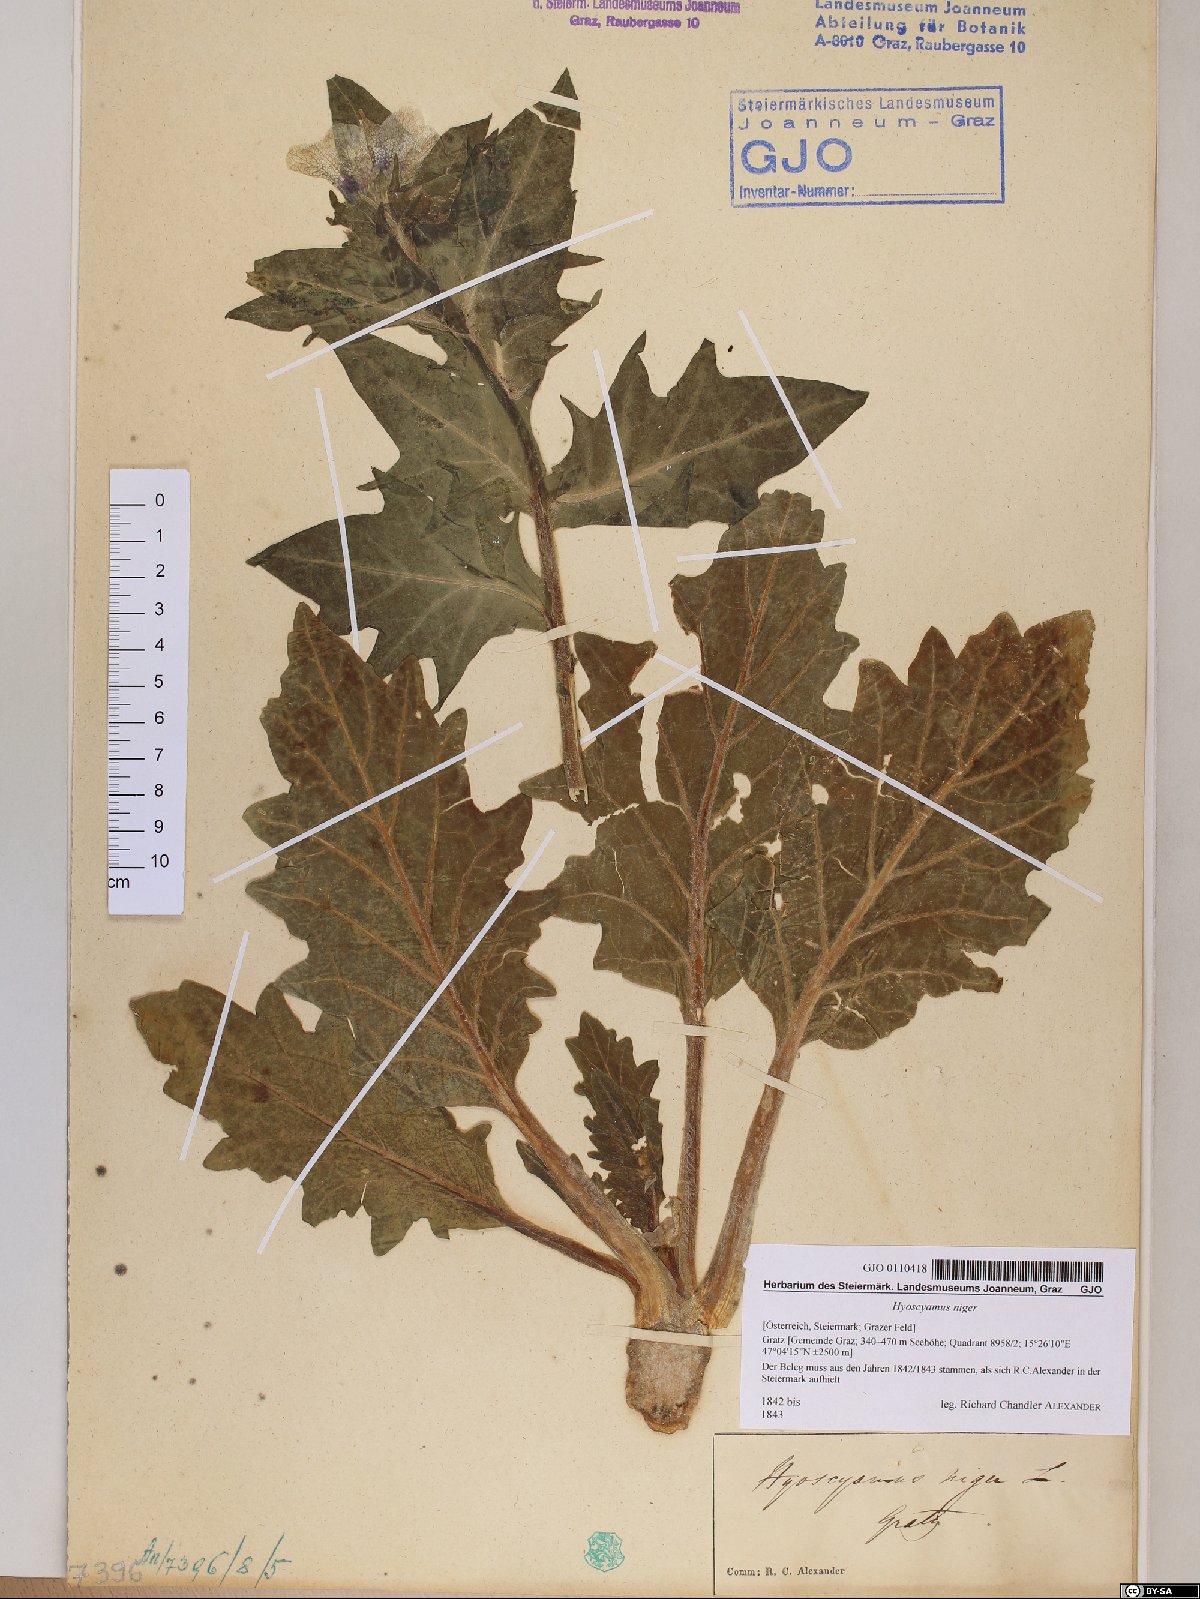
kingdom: Plantae
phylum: Tracheophyta
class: Magnoliopsida
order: Solanales
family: Solanaceae
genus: Hyoscyamus
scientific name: Hyoscyamus niger
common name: Henbane
